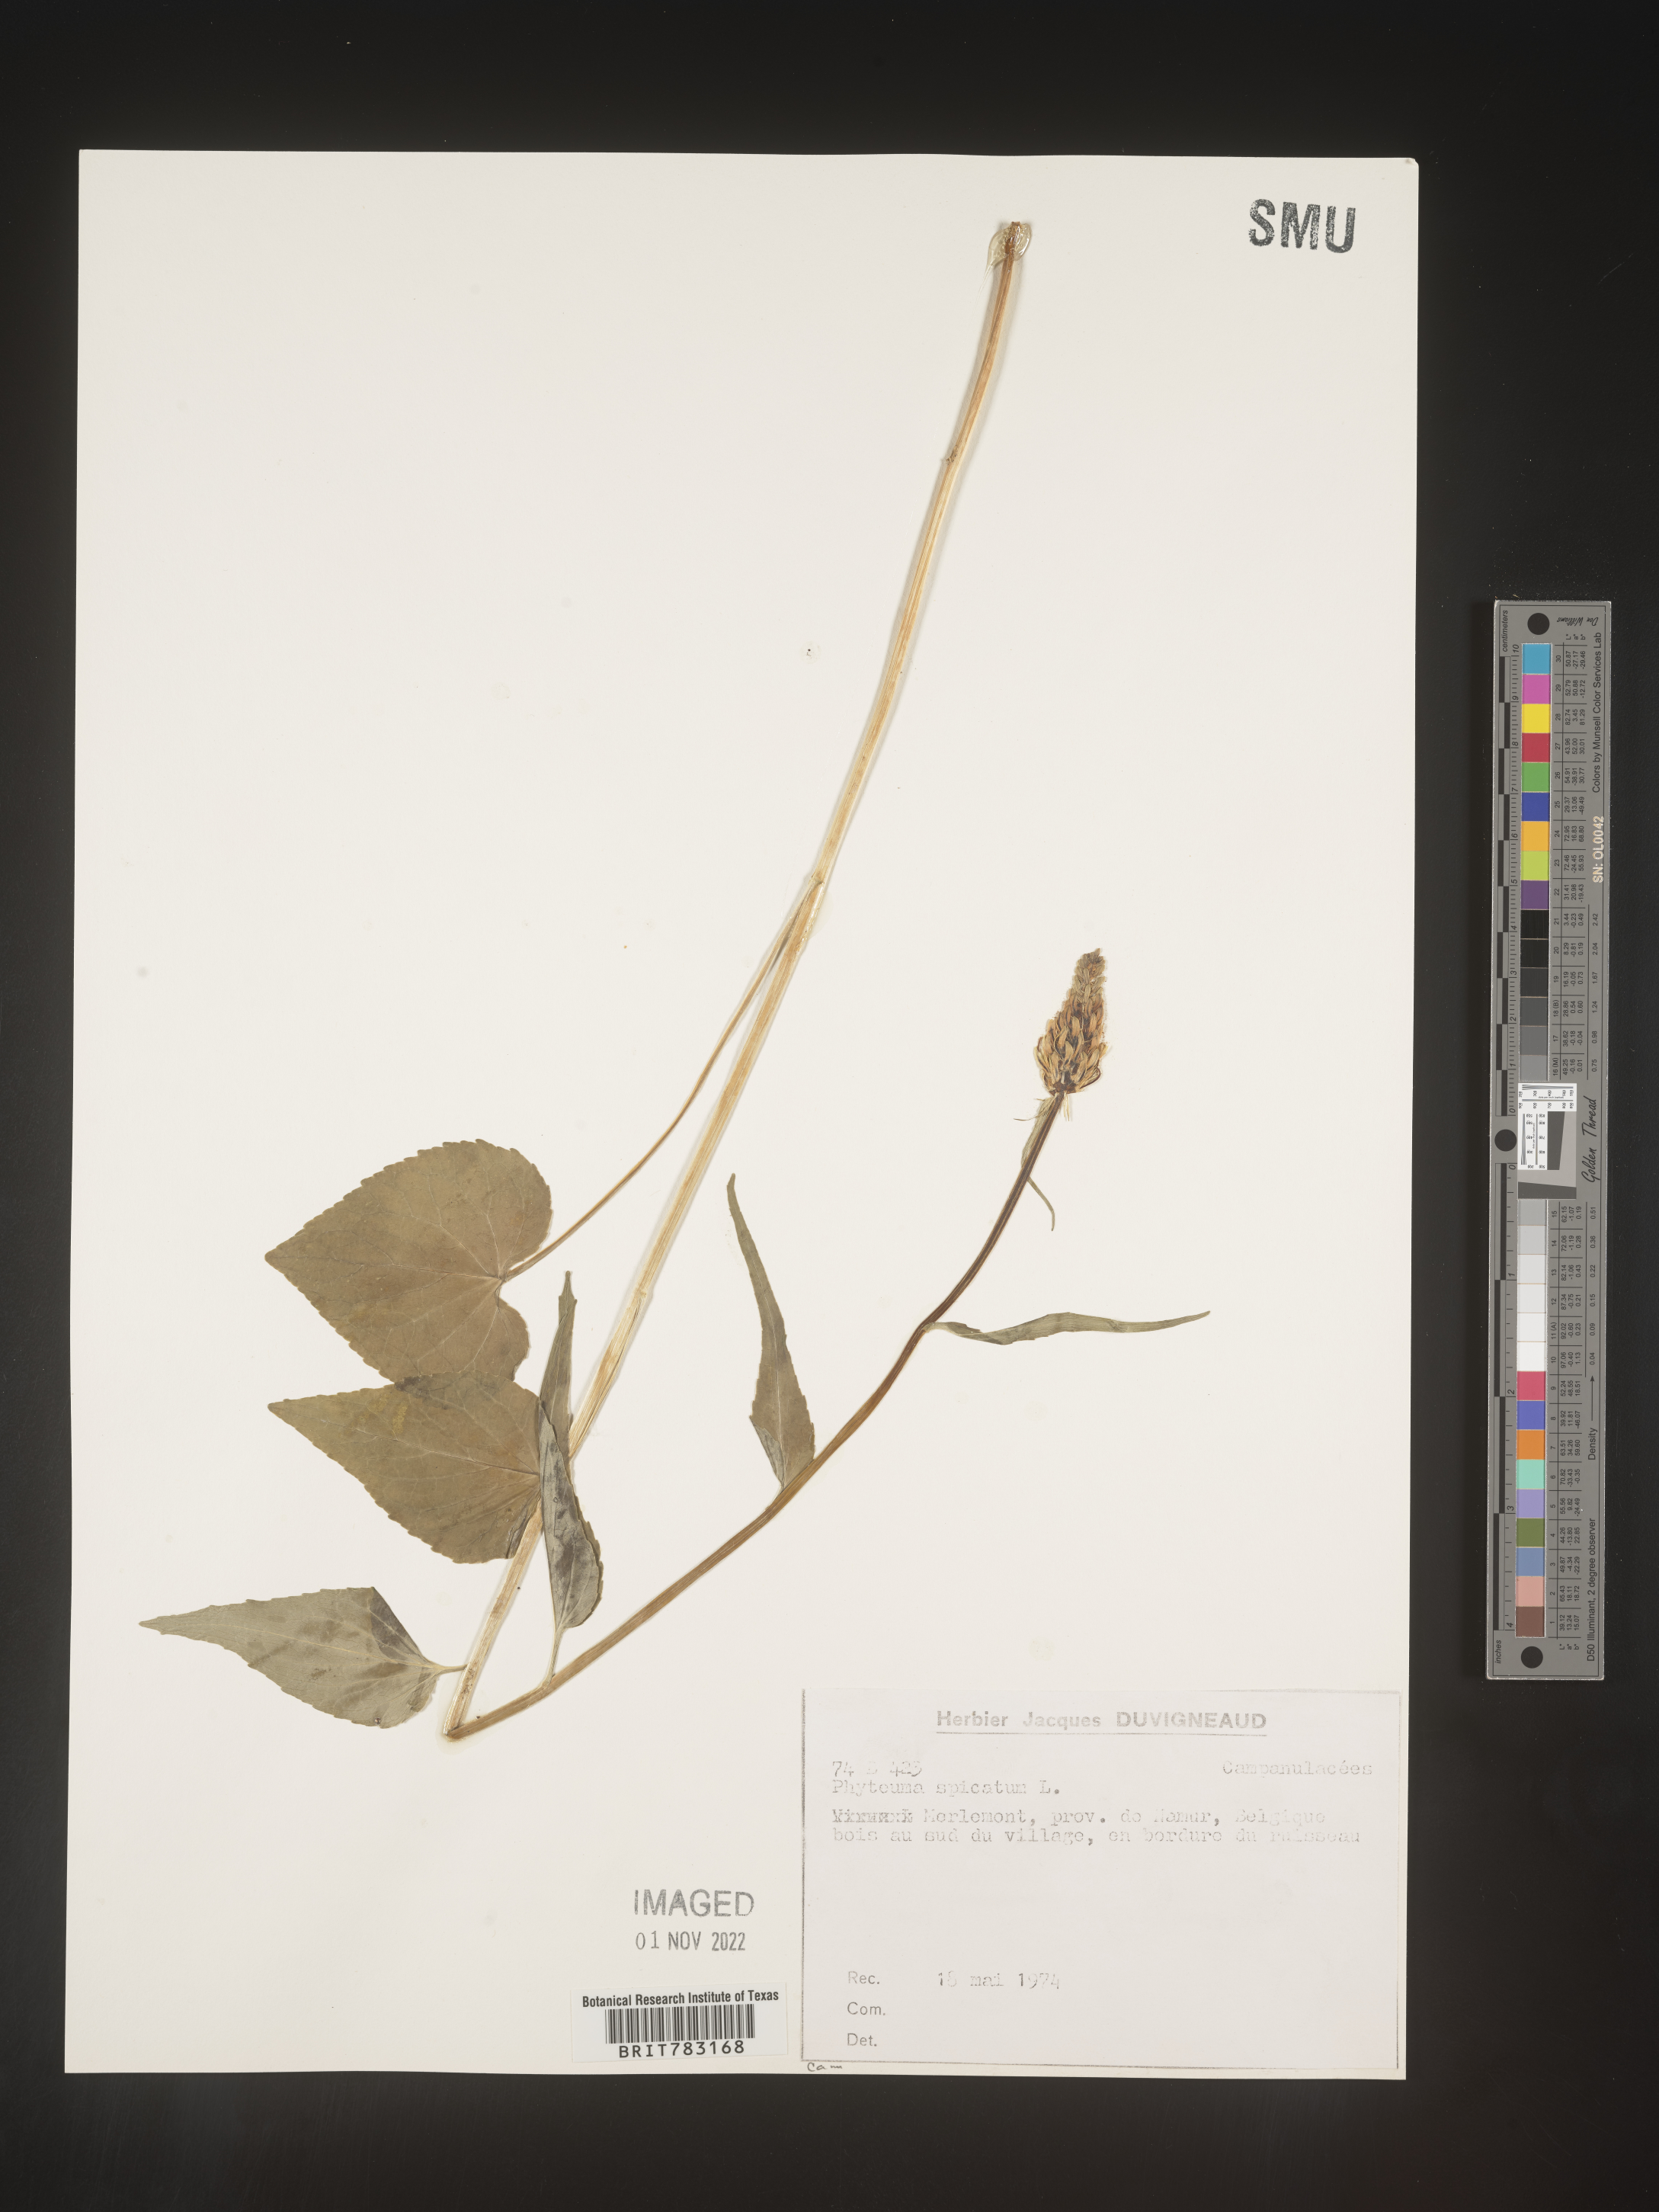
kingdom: Plantae
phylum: Tracheophyta
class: Magnoliopsida
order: Asterales
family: Campanulaceae
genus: Phyteuma
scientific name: Phyteuma
